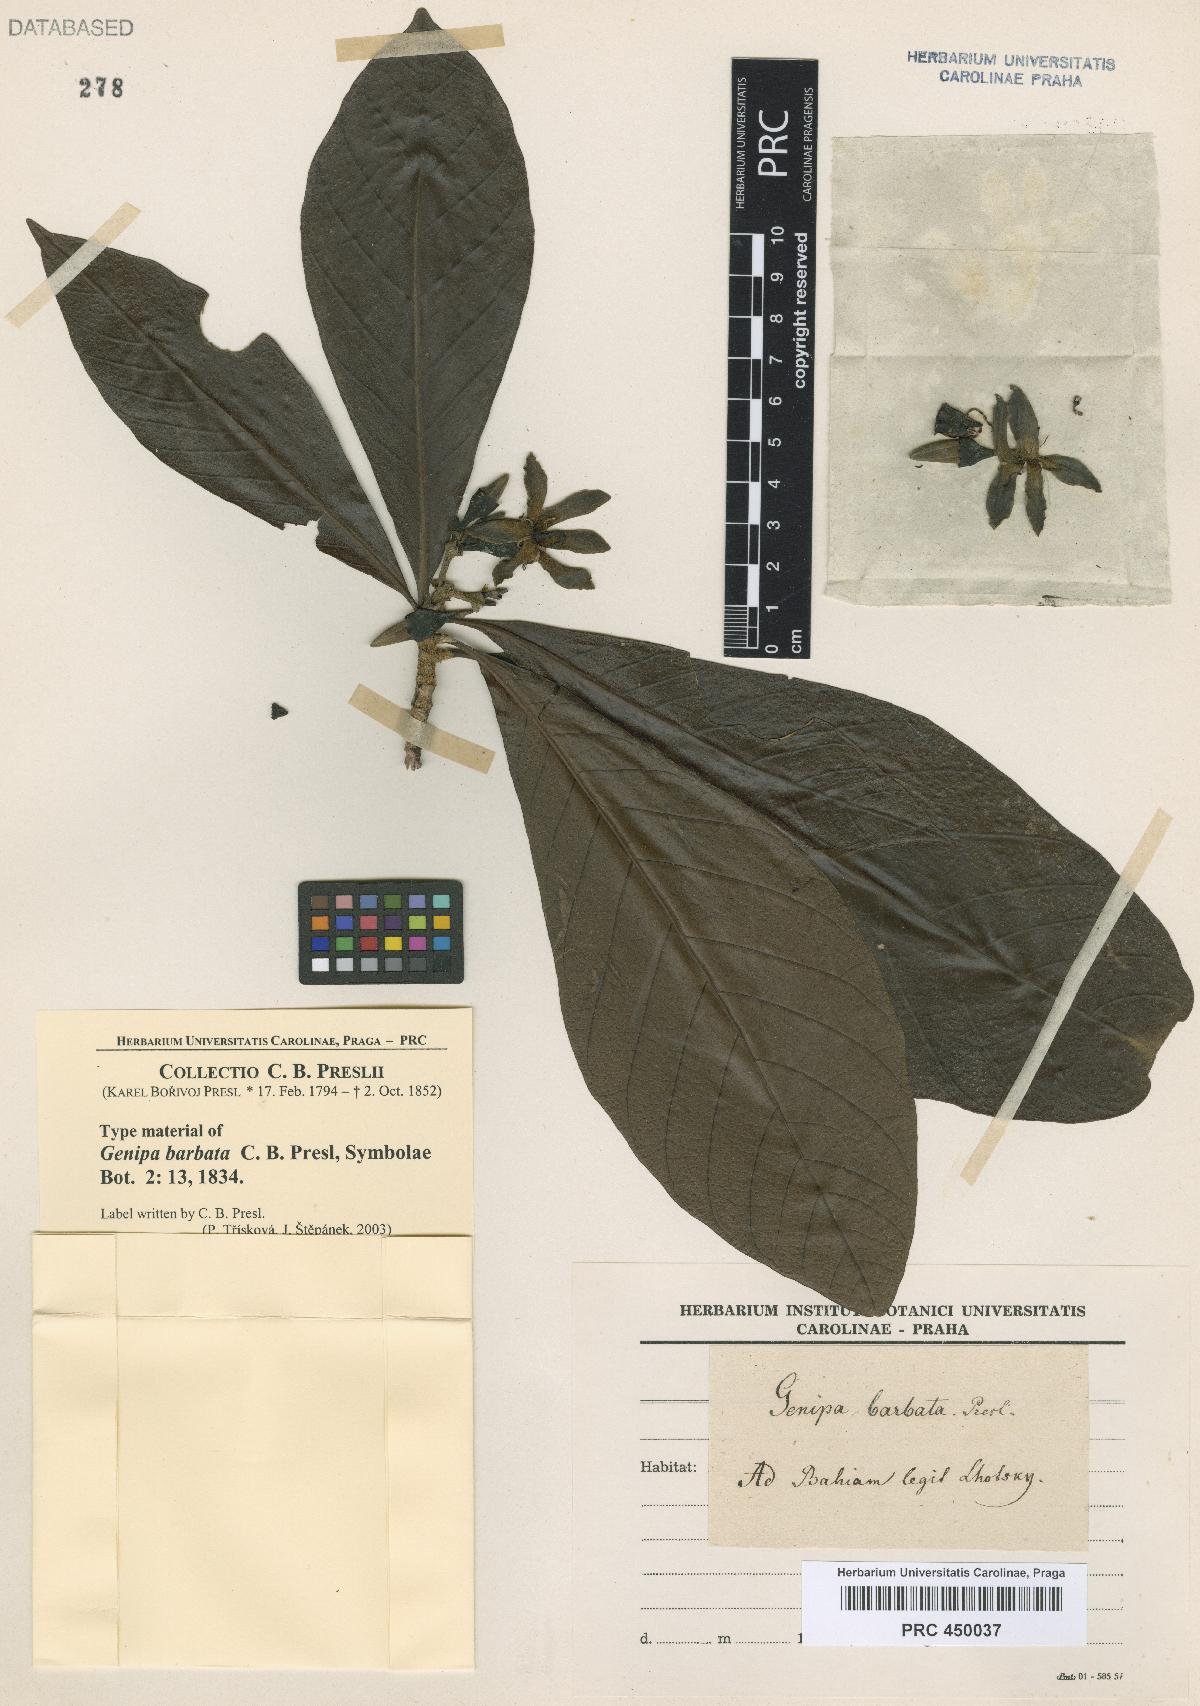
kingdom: Plantae
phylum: Tracheophyta
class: Magnoliopsida
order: Gentianales
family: Rubiaceae
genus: Genipa
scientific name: Genipa americana
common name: Genipap
